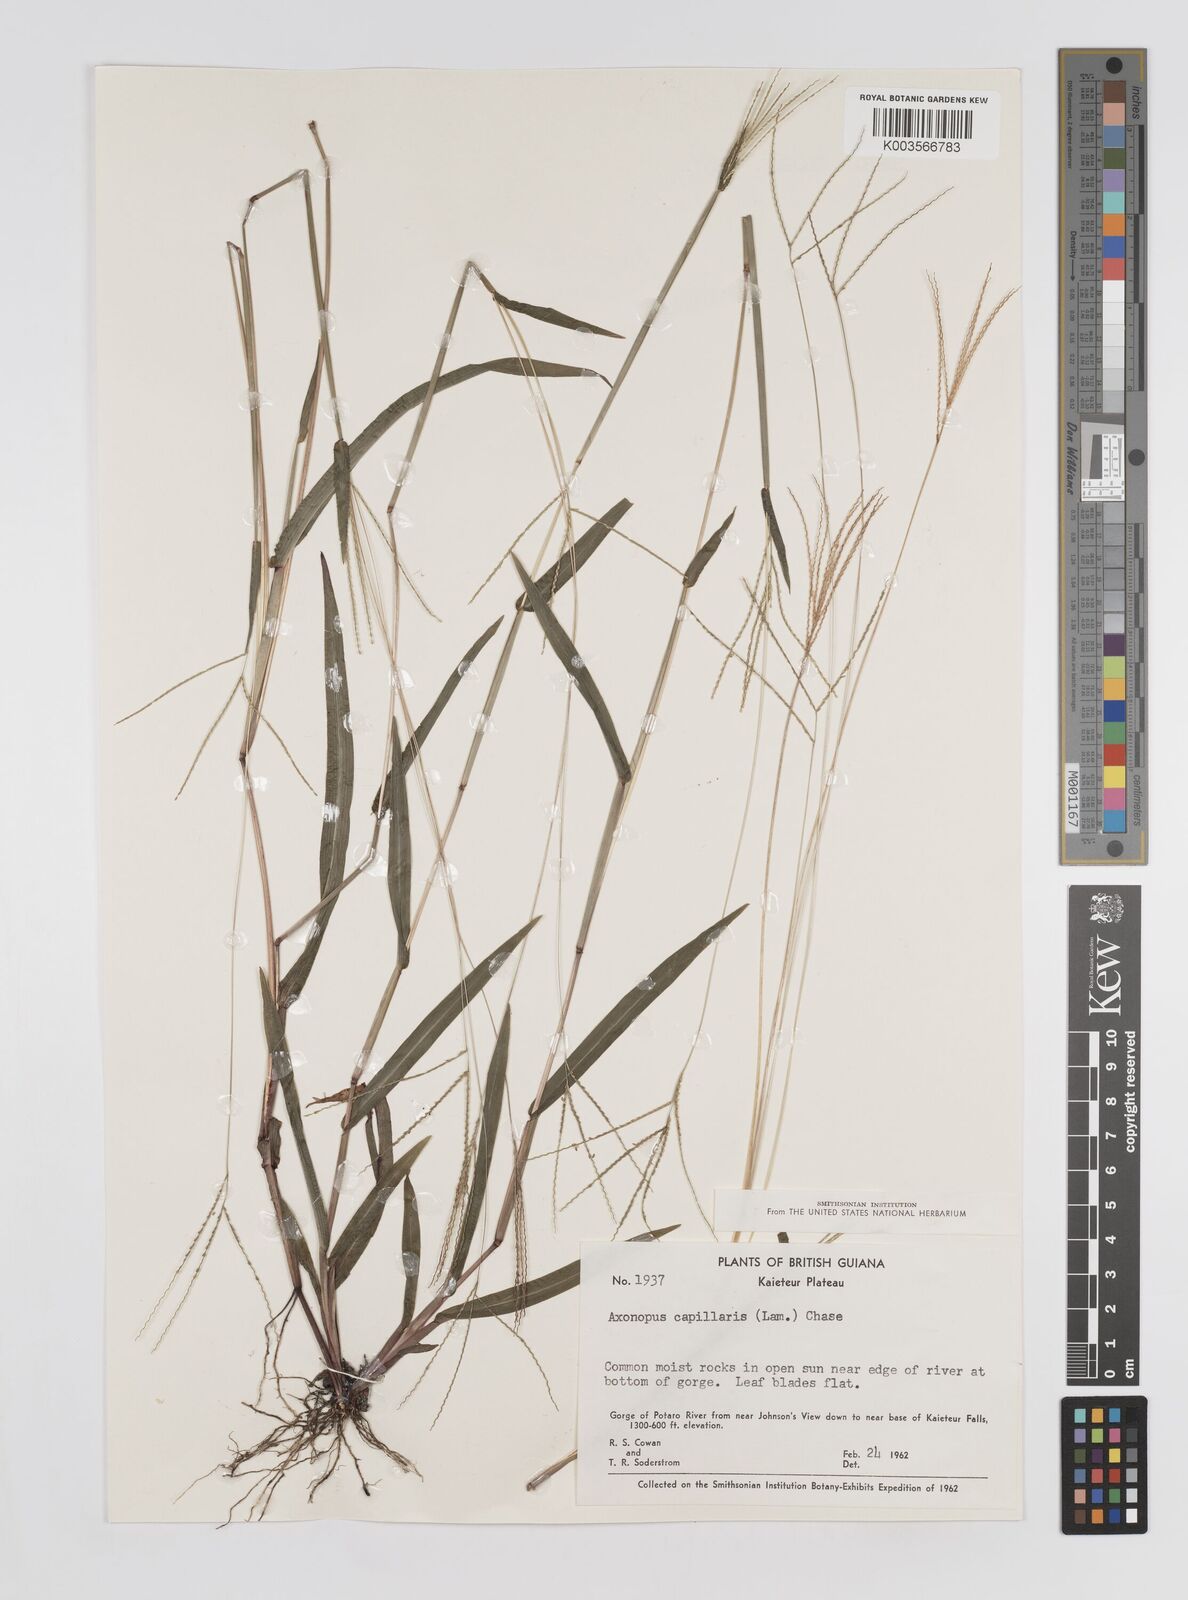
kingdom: Plantae
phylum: Tracheophyta
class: Liliopsida
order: Poales
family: Poaceae
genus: Axonopus
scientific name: Axonopus capillaris
